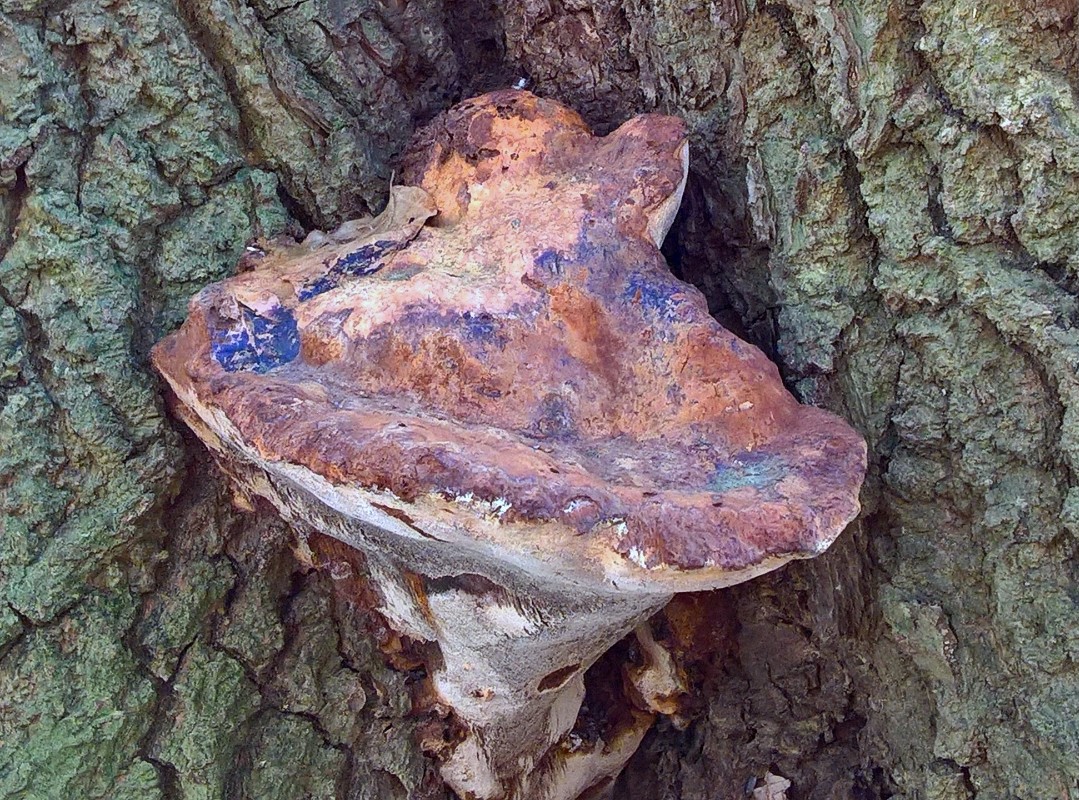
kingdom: Fungi
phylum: Basidiomycota
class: Agaricomycetes
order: Hymenochaetales
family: Hymenochaetaceae
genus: Pseudoinonotus
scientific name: Pseudoinonotus dryadeus
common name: ege-spejlporesvamp
